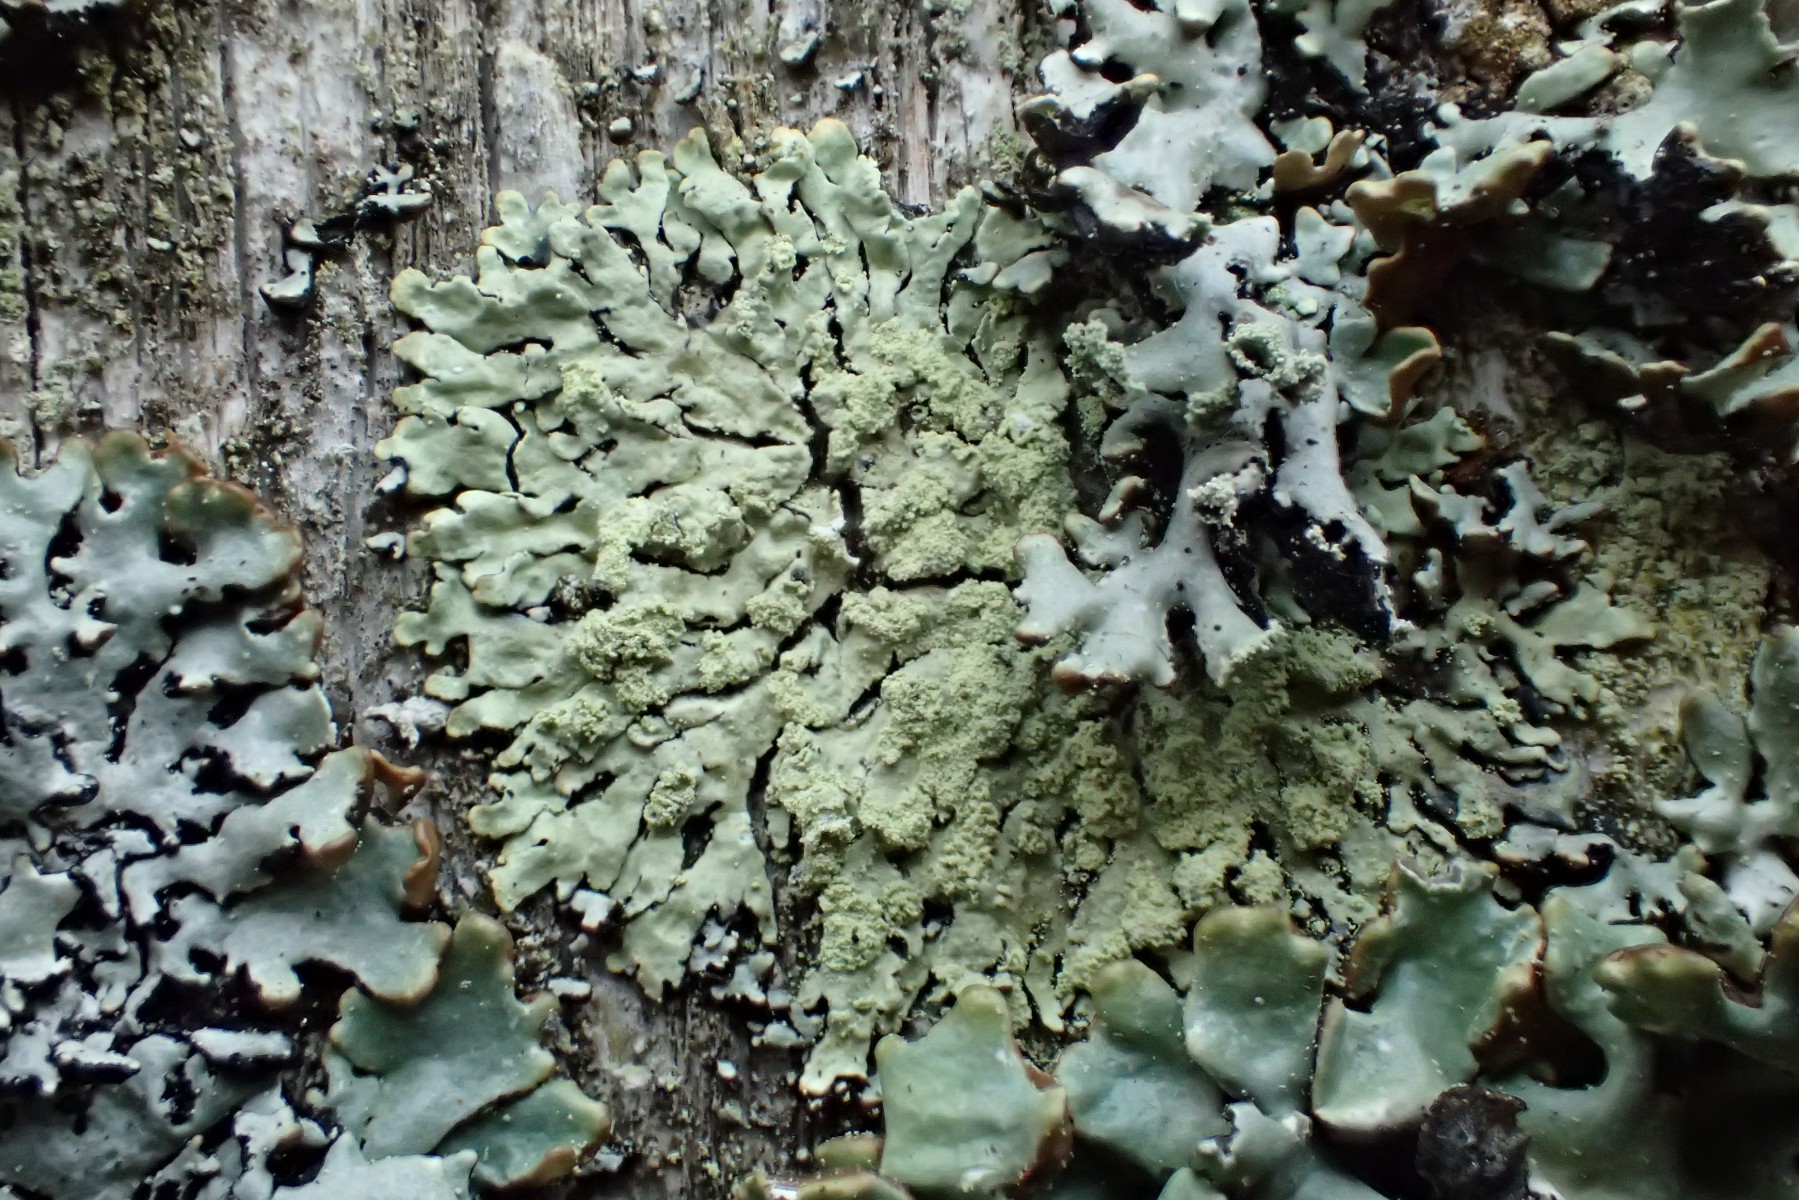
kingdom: Fungi
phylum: Ascomycota
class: Lecanoromycetes
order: Lecanorales
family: Parmeliaceae
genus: Parmeliopsis
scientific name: Parmeliopsis ambigua
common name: gul stolpelav
